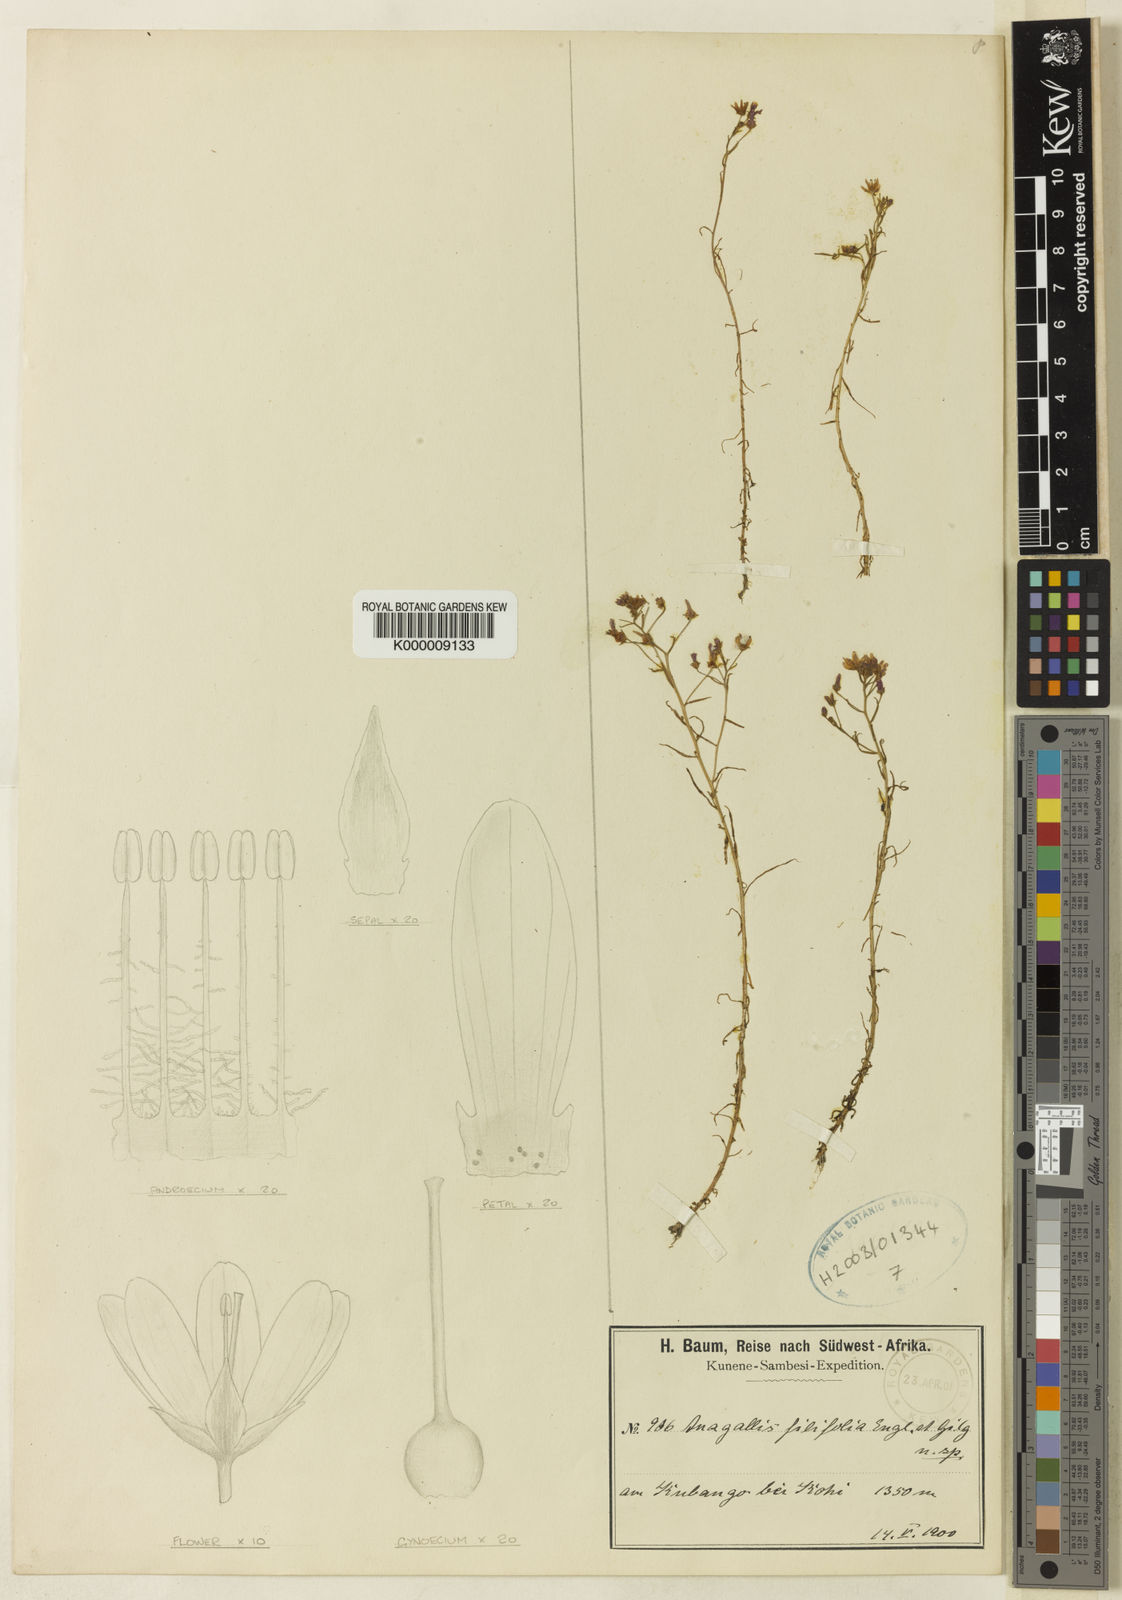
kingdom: Plantae
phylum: Tracheophyta
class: Magnoliopsida
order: Ericales
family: Primulaceae
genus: Lysimachia
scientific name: Lysimachia cubangensis
